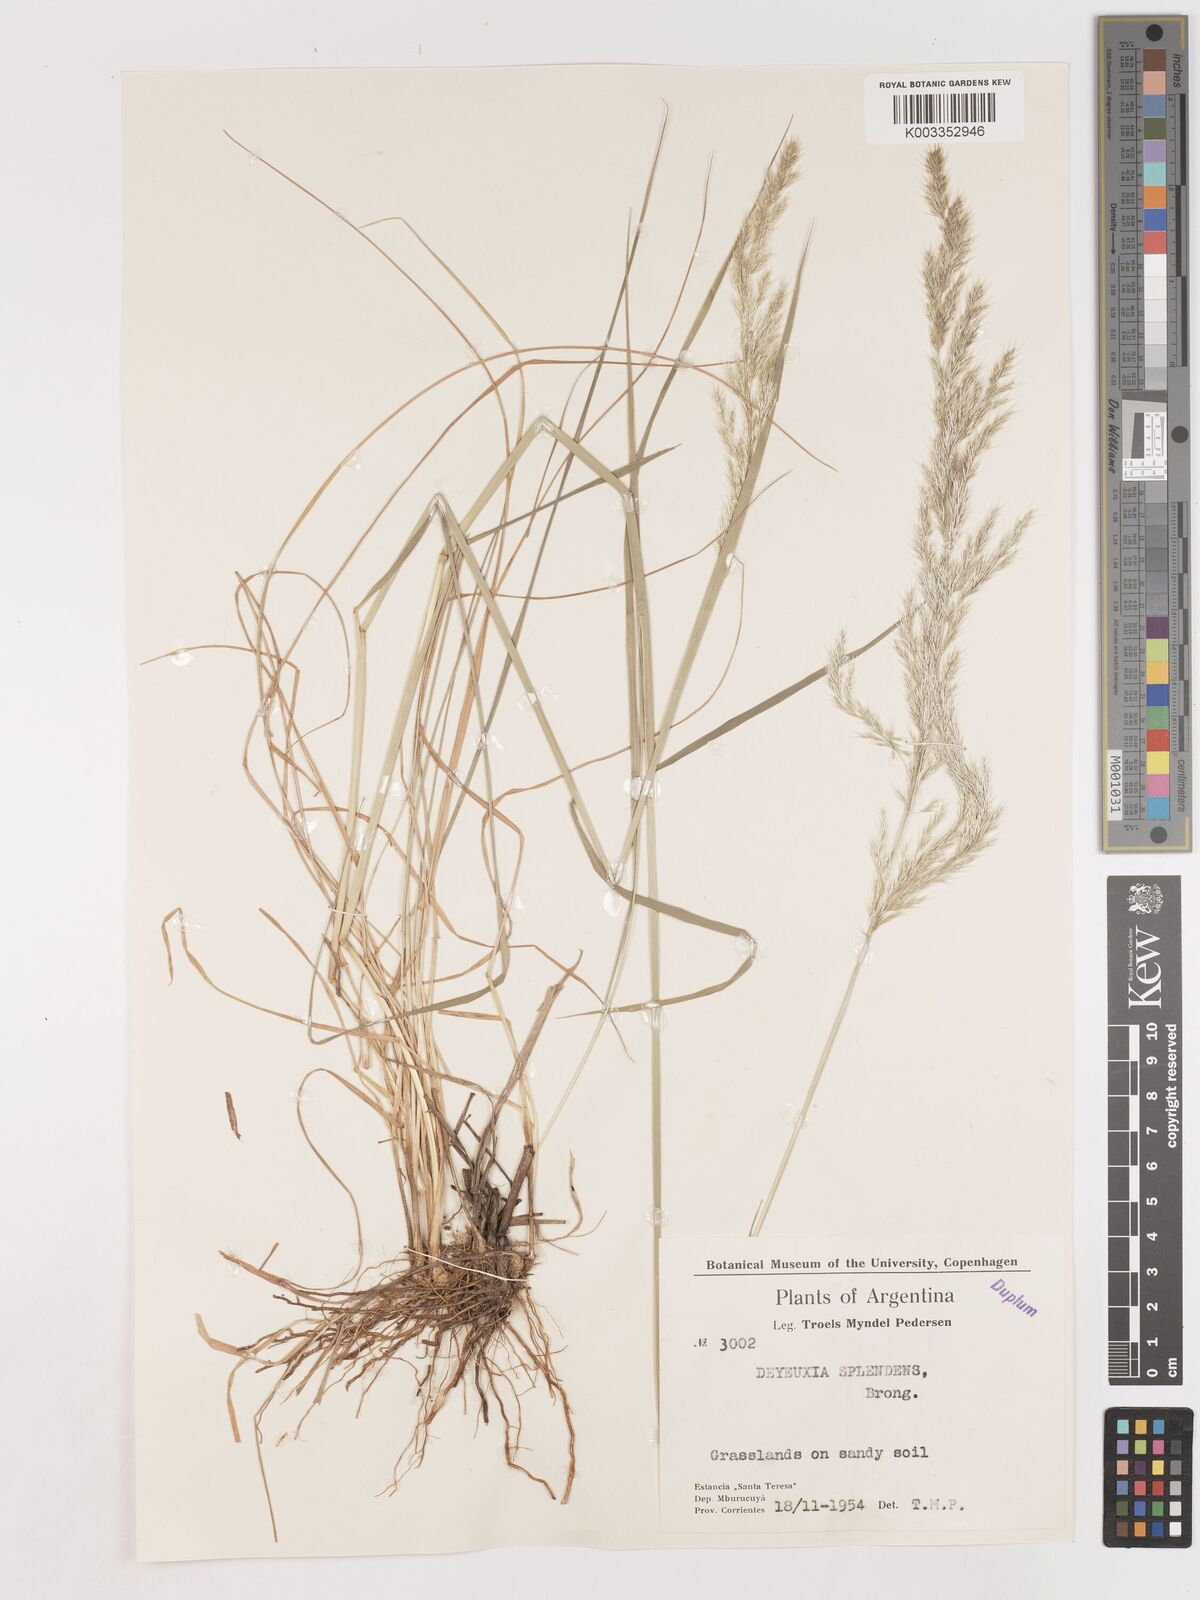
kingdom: Plantae
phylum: Tracheophyta
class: Liliopsida
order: Poales
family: Poaceae
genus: Cinnagrostis
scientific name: Cinnagrostis viridiflavescens
